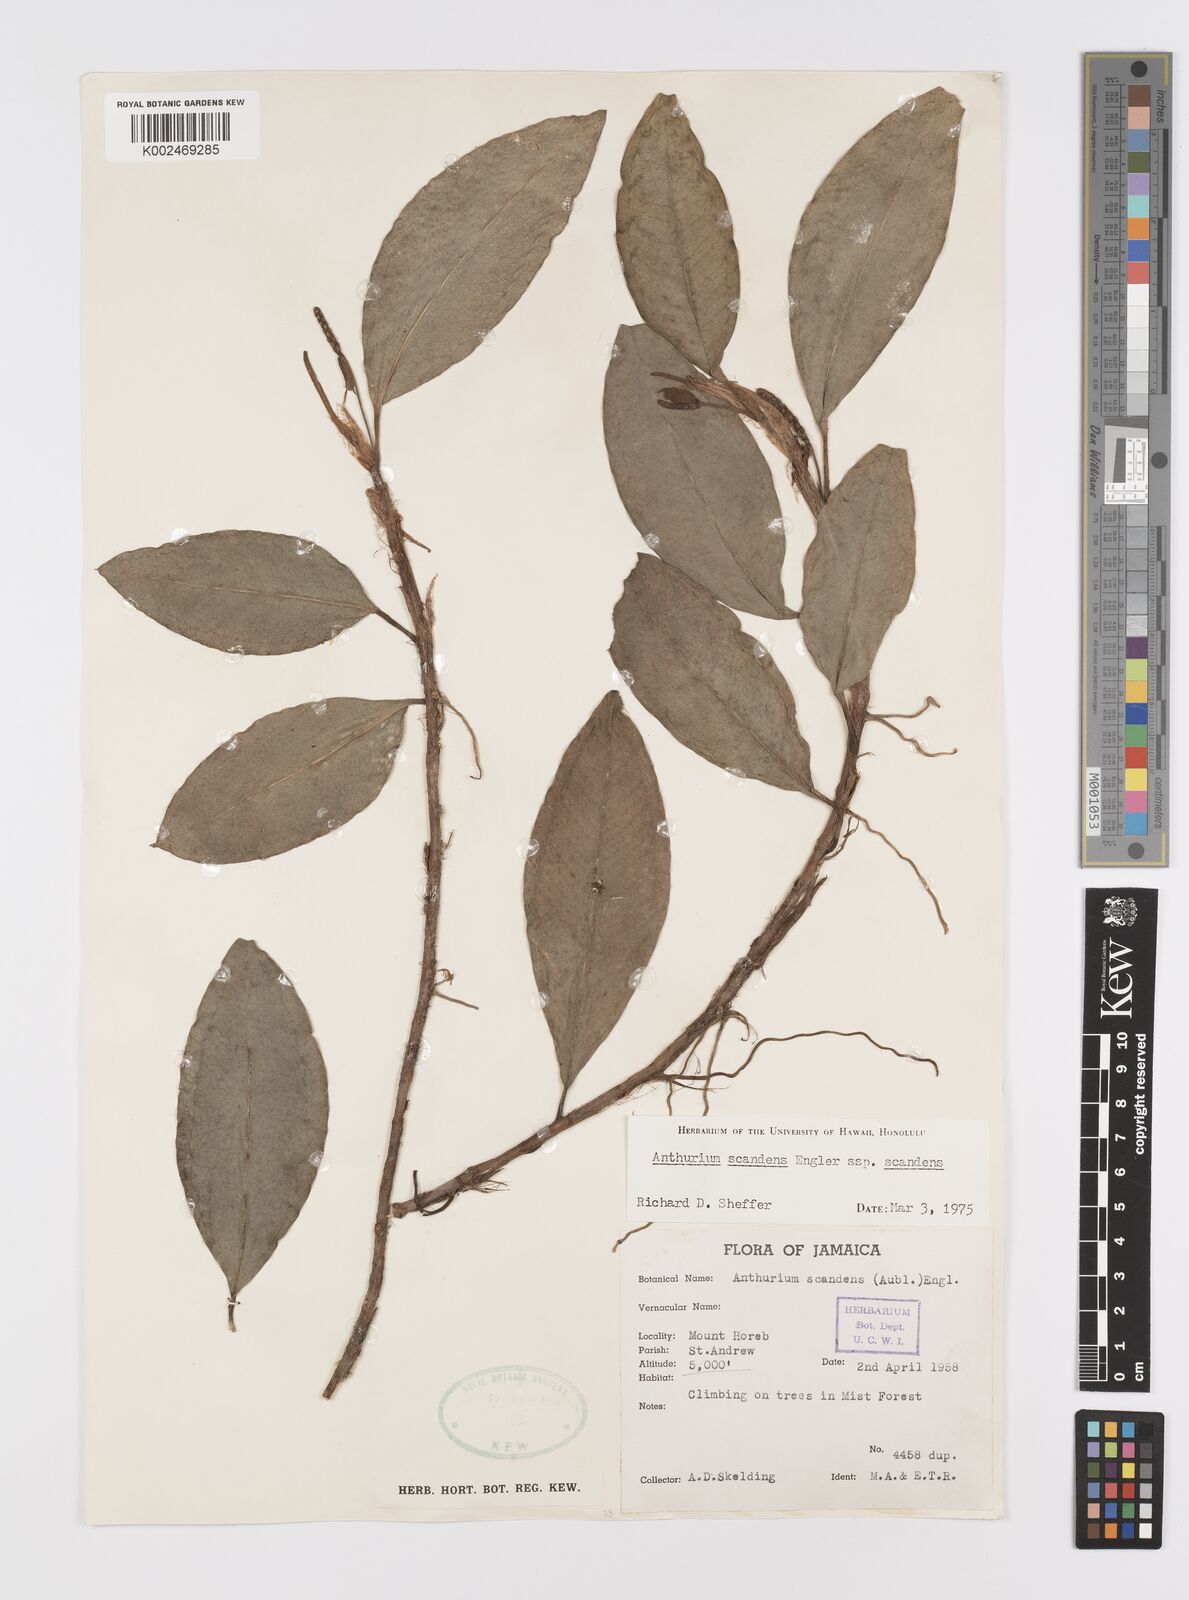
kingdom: Plantae
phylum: Tracheophyta
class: Liliopsida
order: Alismatales
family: Araceae
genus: Anthurium
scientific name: Anthurium scandens
